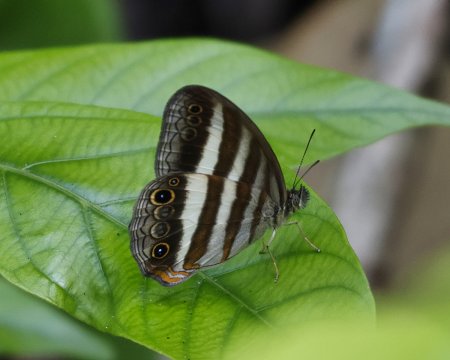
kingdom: Animalia
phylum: Arthropoda
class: Insecta
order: Lepidoptera
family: Nymphalidae
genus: Pareuptychia
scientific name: Pareuptychia hesione
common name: White Satyr
